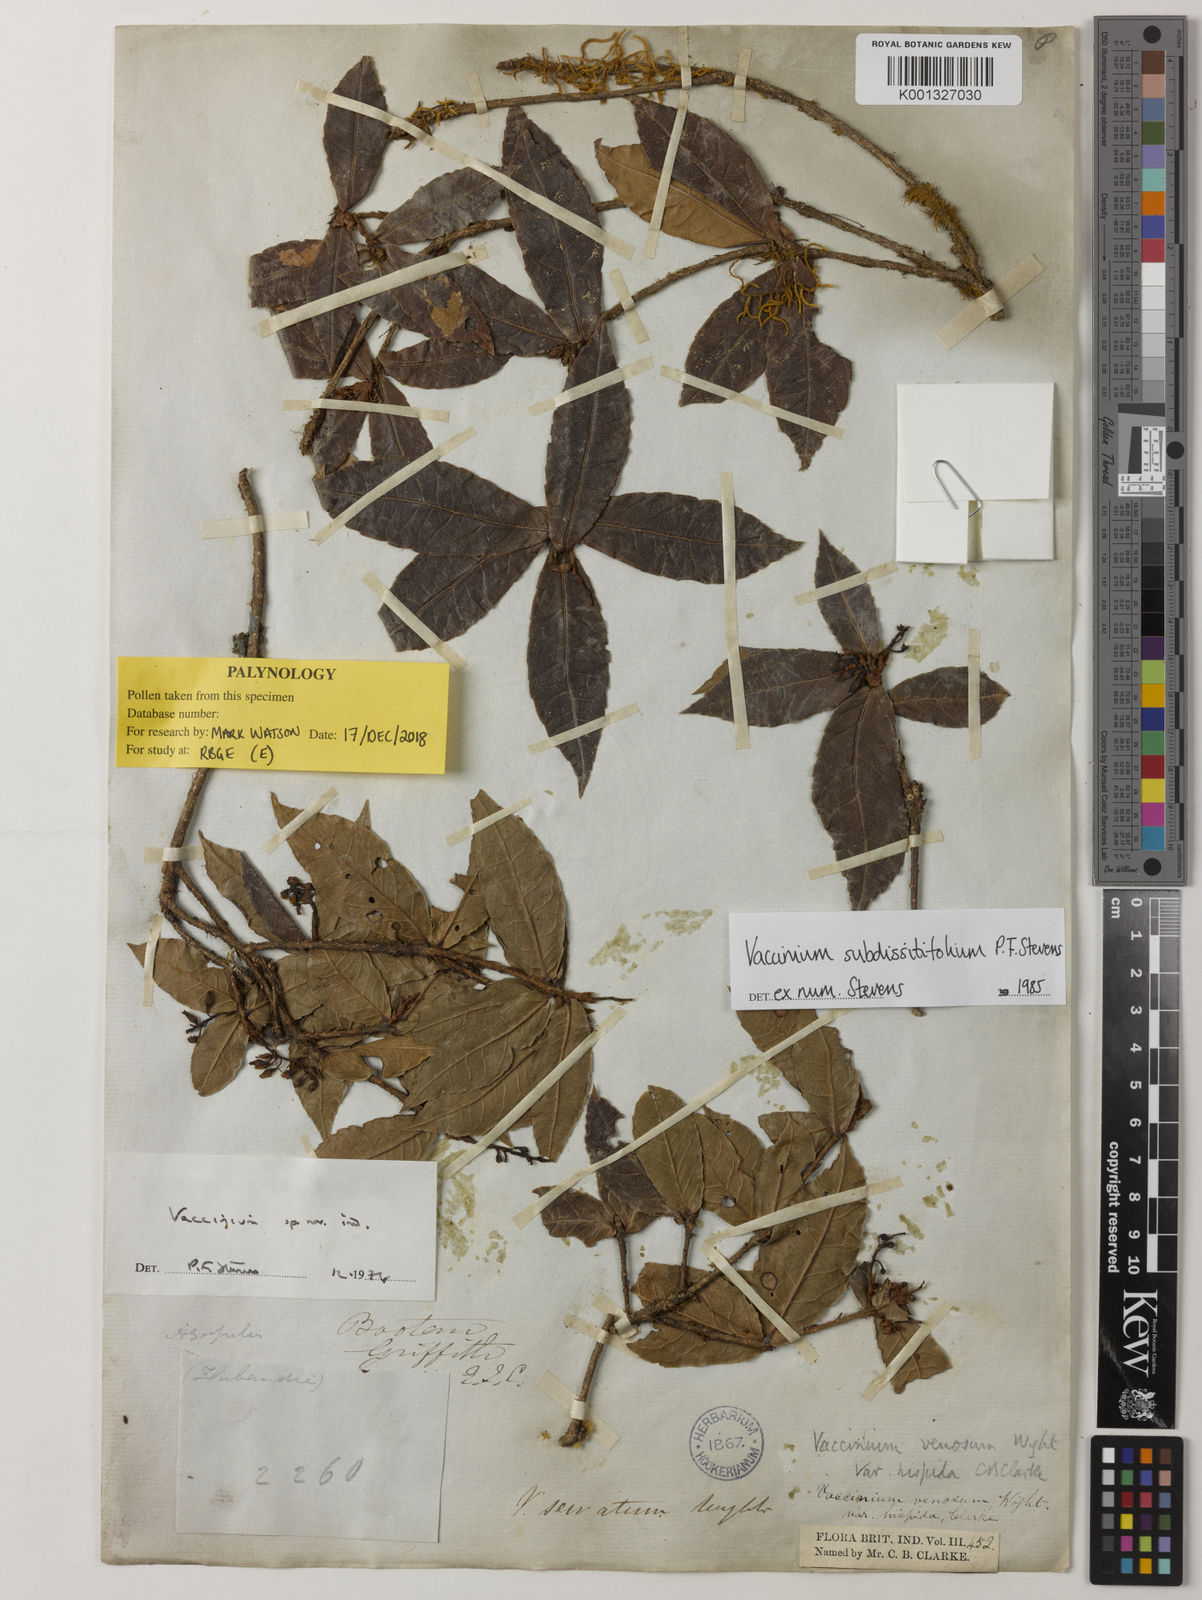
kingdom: Plantae
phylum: Tracheophyta
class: Magnoliopsida
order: Ericales
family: Ericaceae
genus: Vaccinium
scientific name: Vaccinium subdissitifolium
